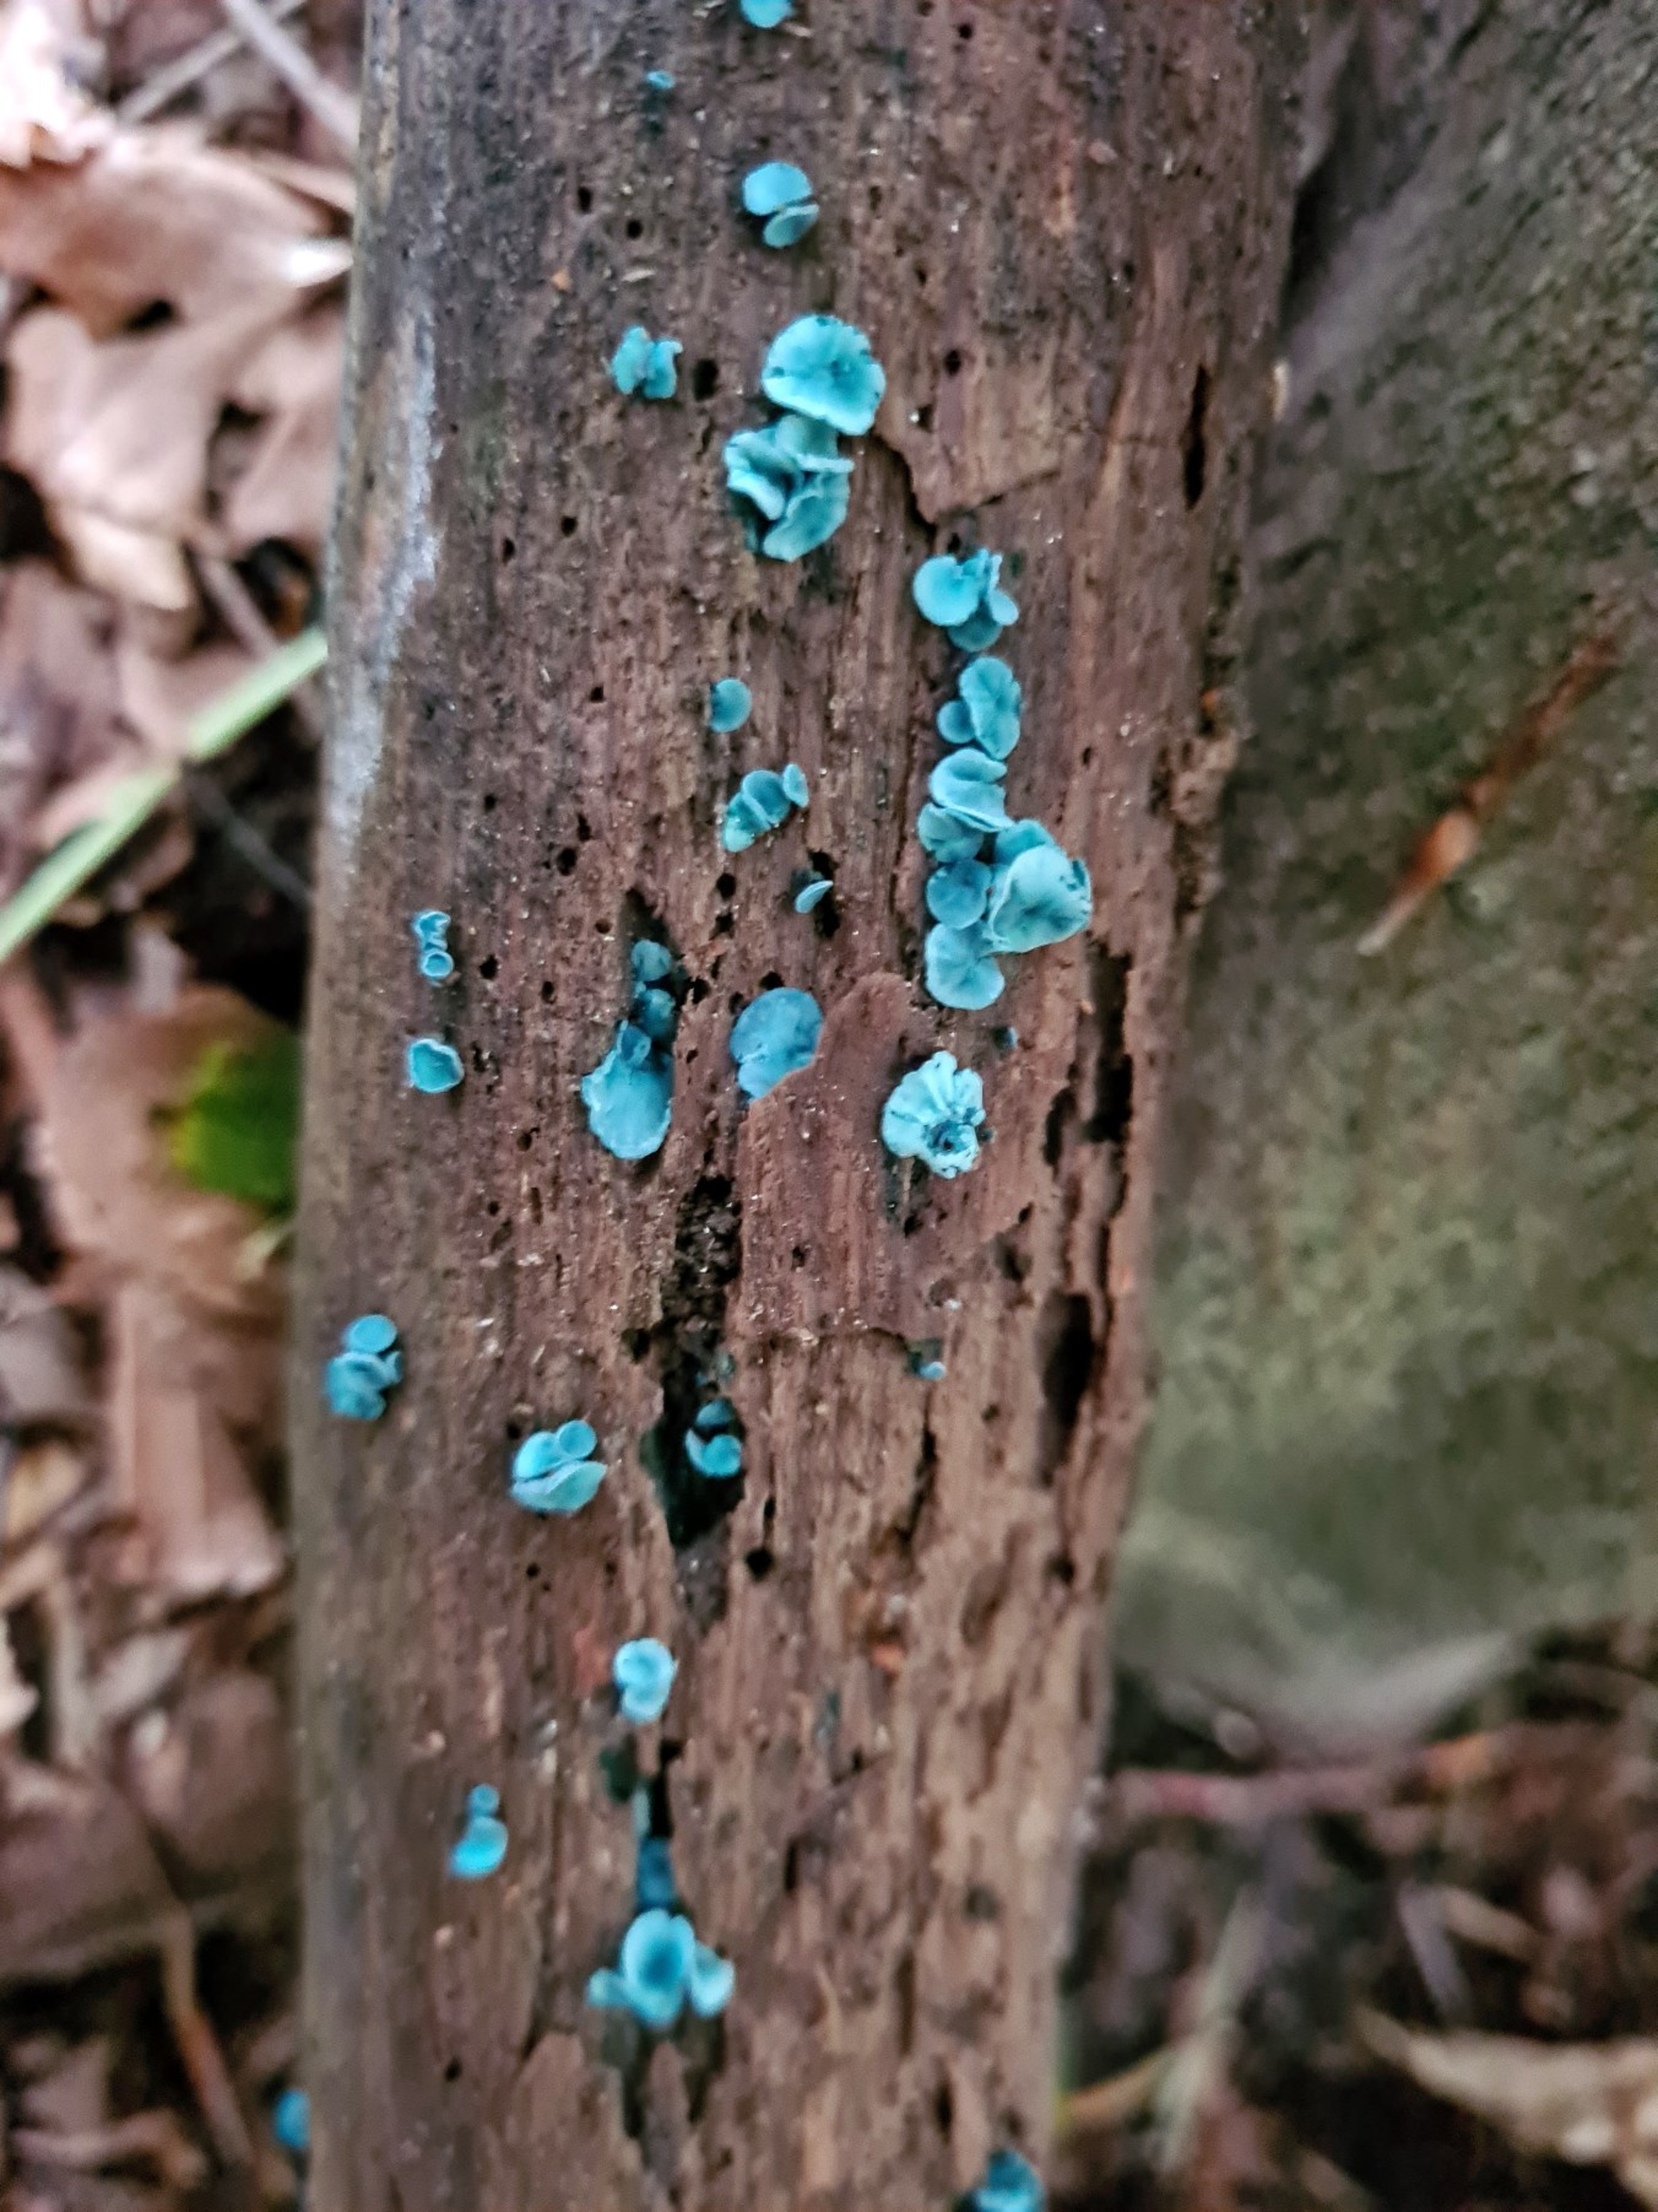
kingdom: Fungi
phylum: Ascomycota
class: Leotiomycetes
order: Helotiales
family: Chlorociboriaceae
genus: Chlorociboria
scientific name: Chlorociboria aeruginascens
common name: Almindelig grønskive
